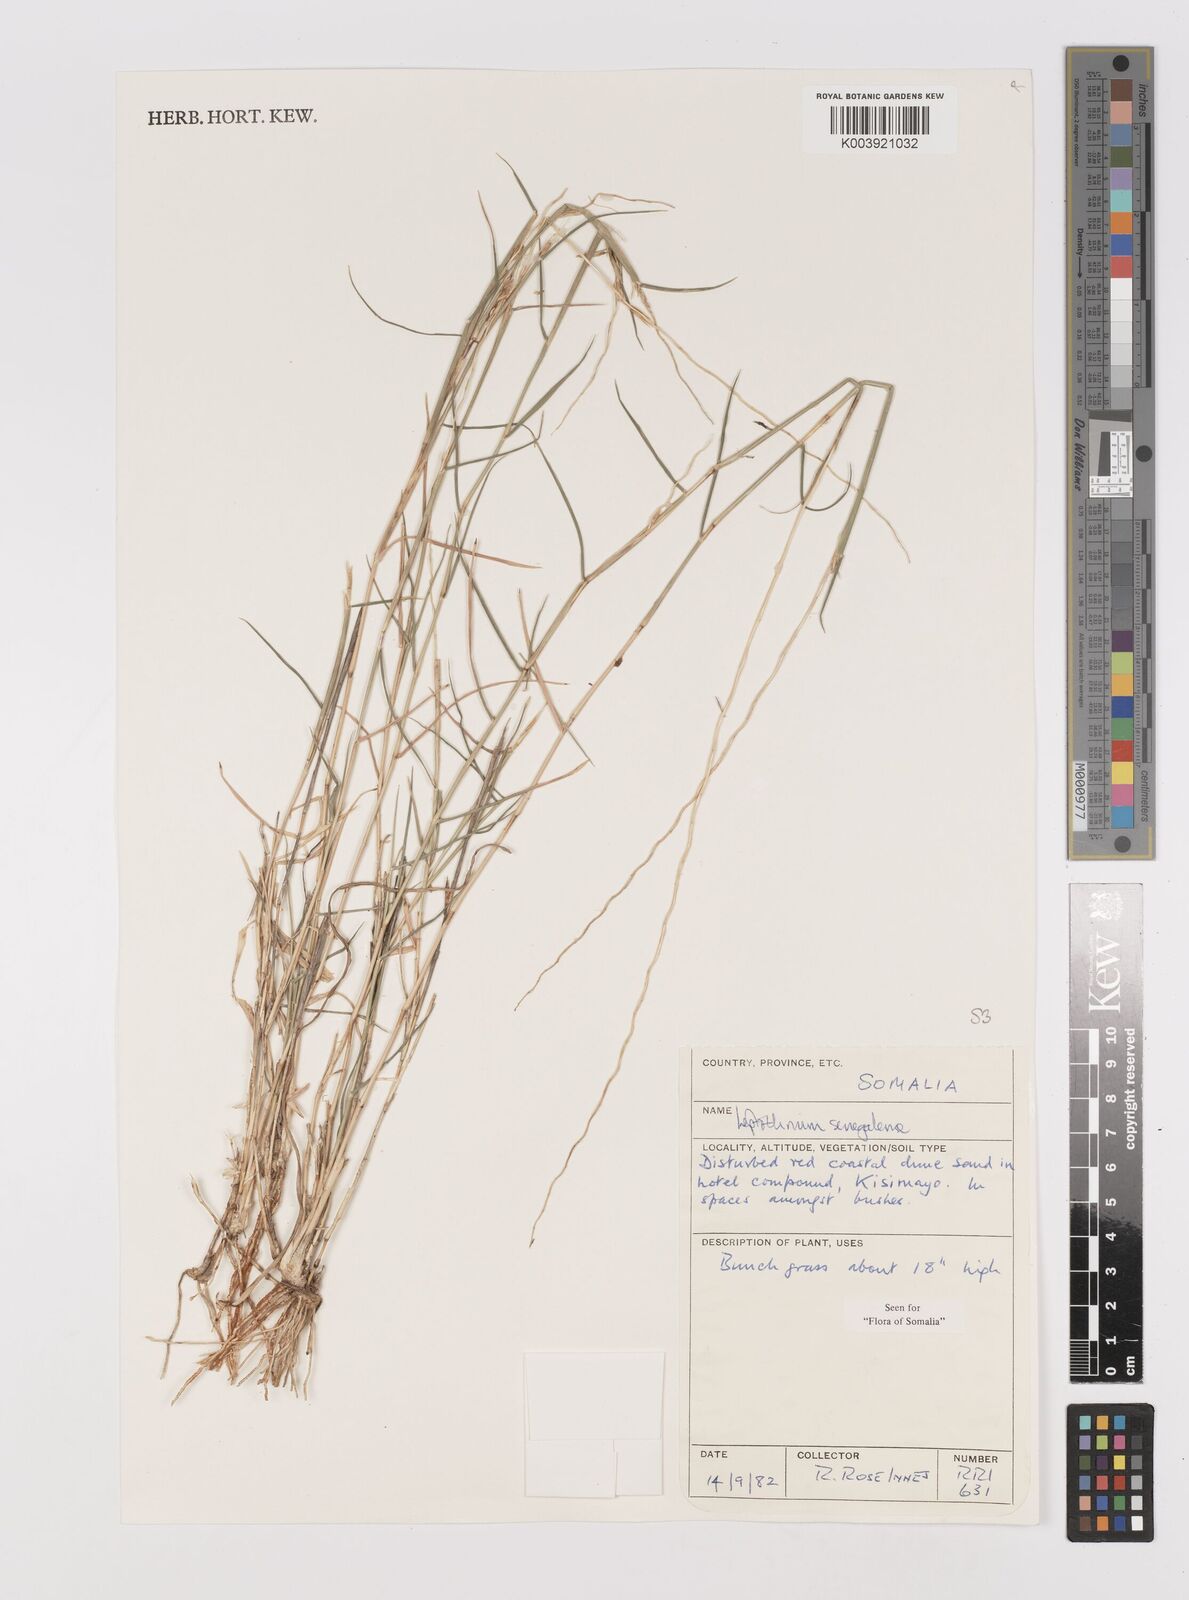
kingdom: Plantae
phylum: Tracheophyta
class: Liliopsida
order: Poales
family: Poaceae
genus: Leptothrium
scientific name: Leptothrium senegalense
